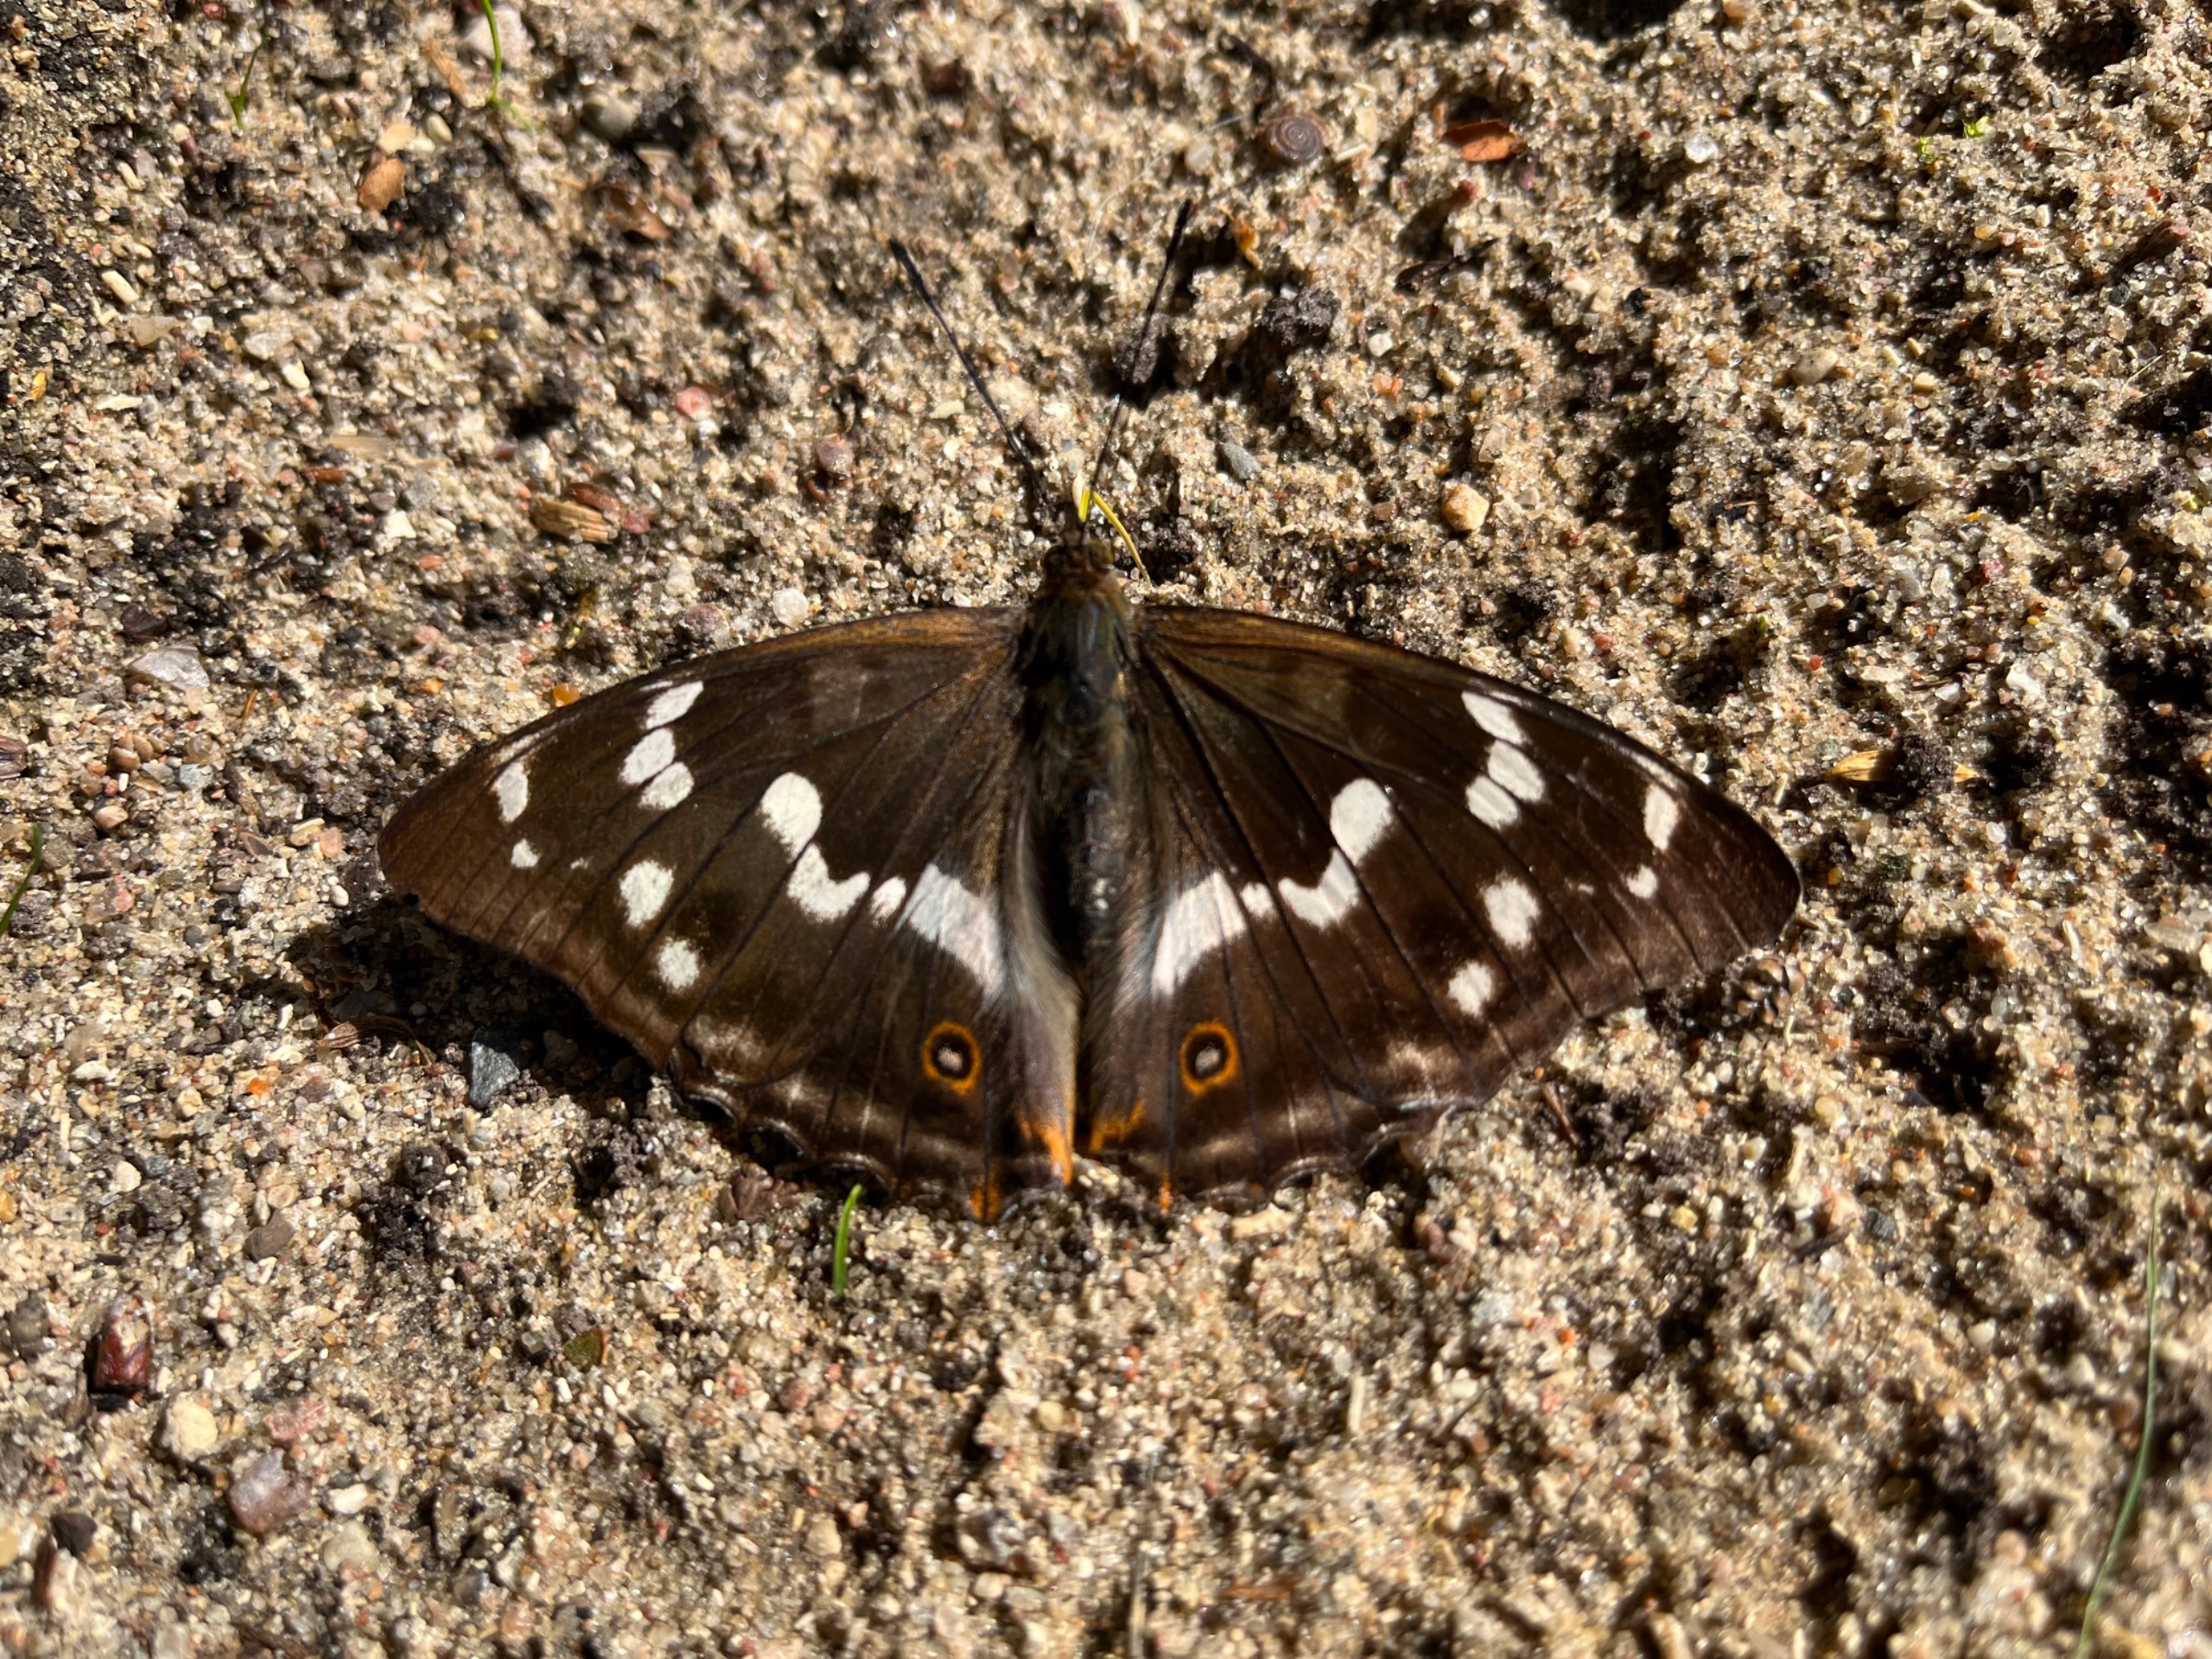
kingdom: Animalia
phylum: Arthropoda
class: Insecta
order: Lepidoptera
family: Nymphalidae
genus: Apatura
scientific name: Apatura iris
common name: Iris
